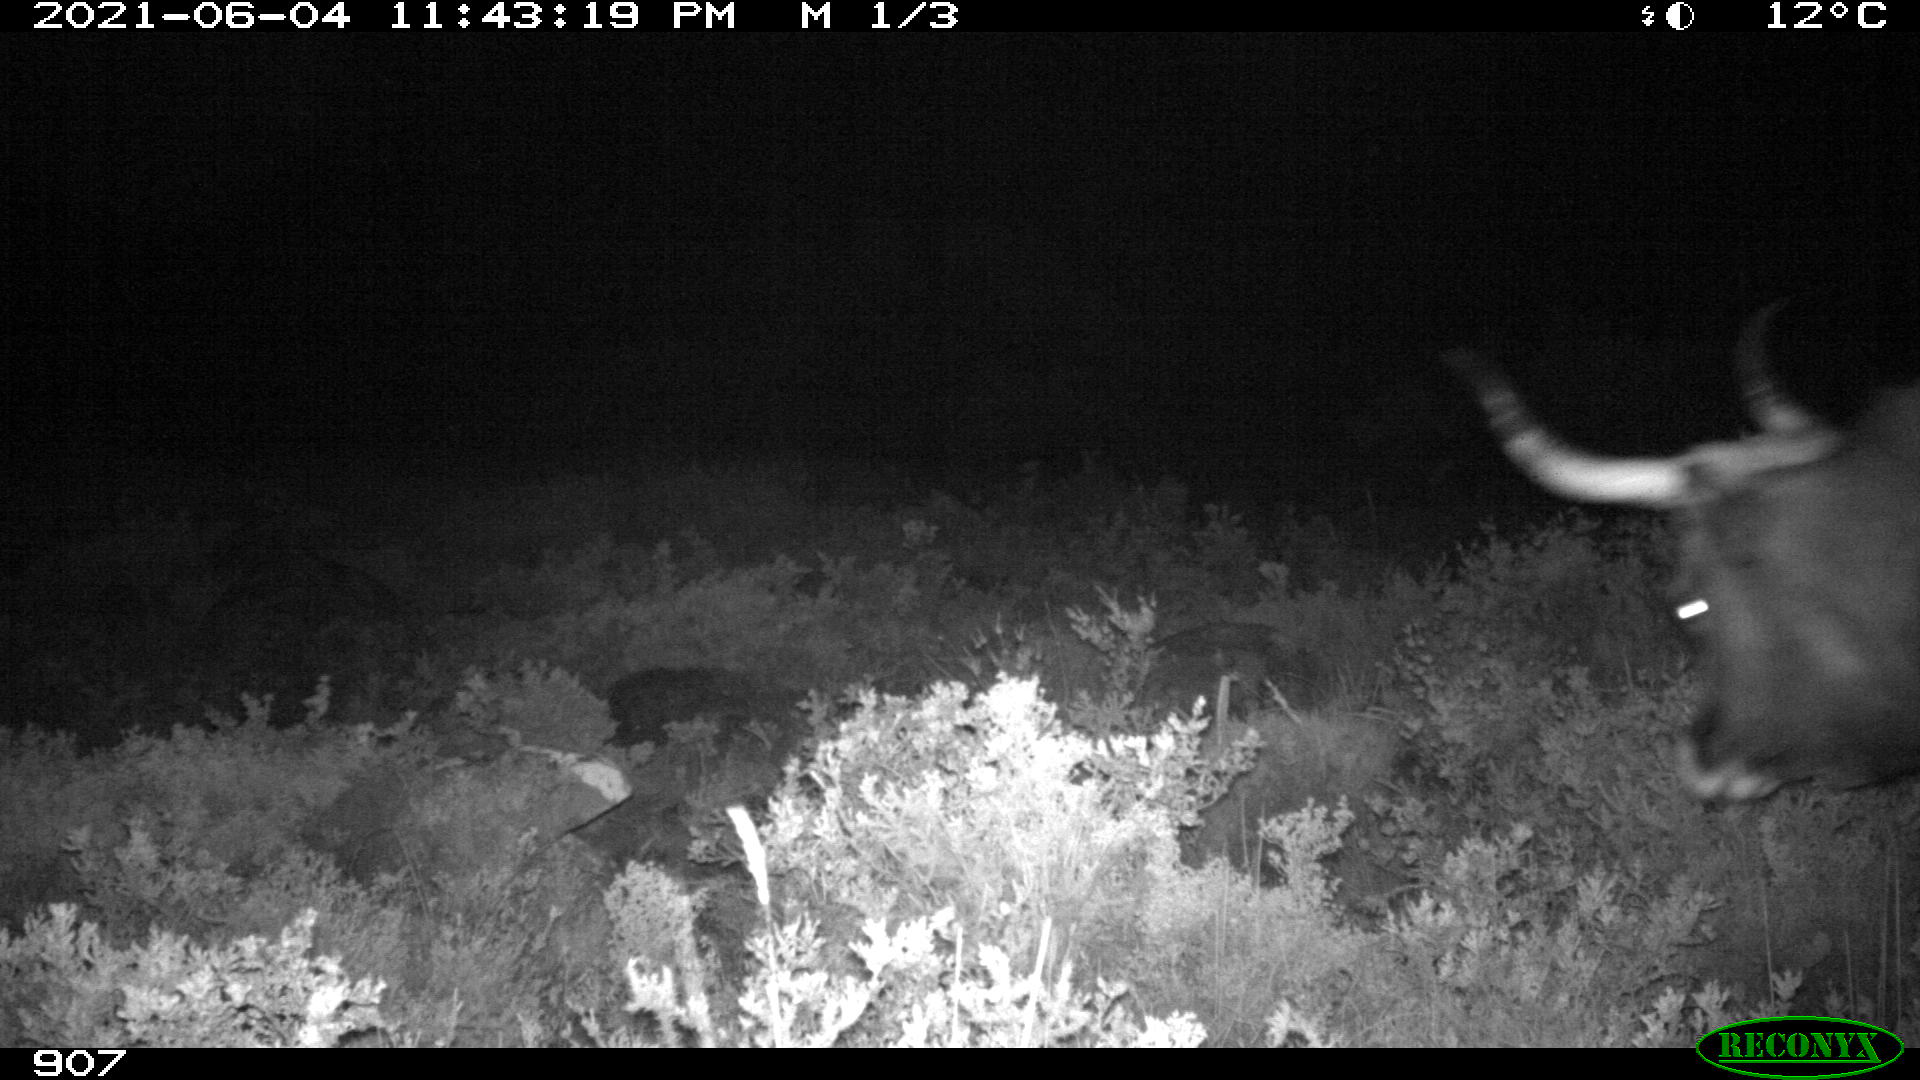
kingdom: Animalia
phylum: Chordata
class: Mammalia
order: Artiodactyla
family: Bovidae
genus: Bos
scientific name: Bos taurus
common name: Domesticated cattle
